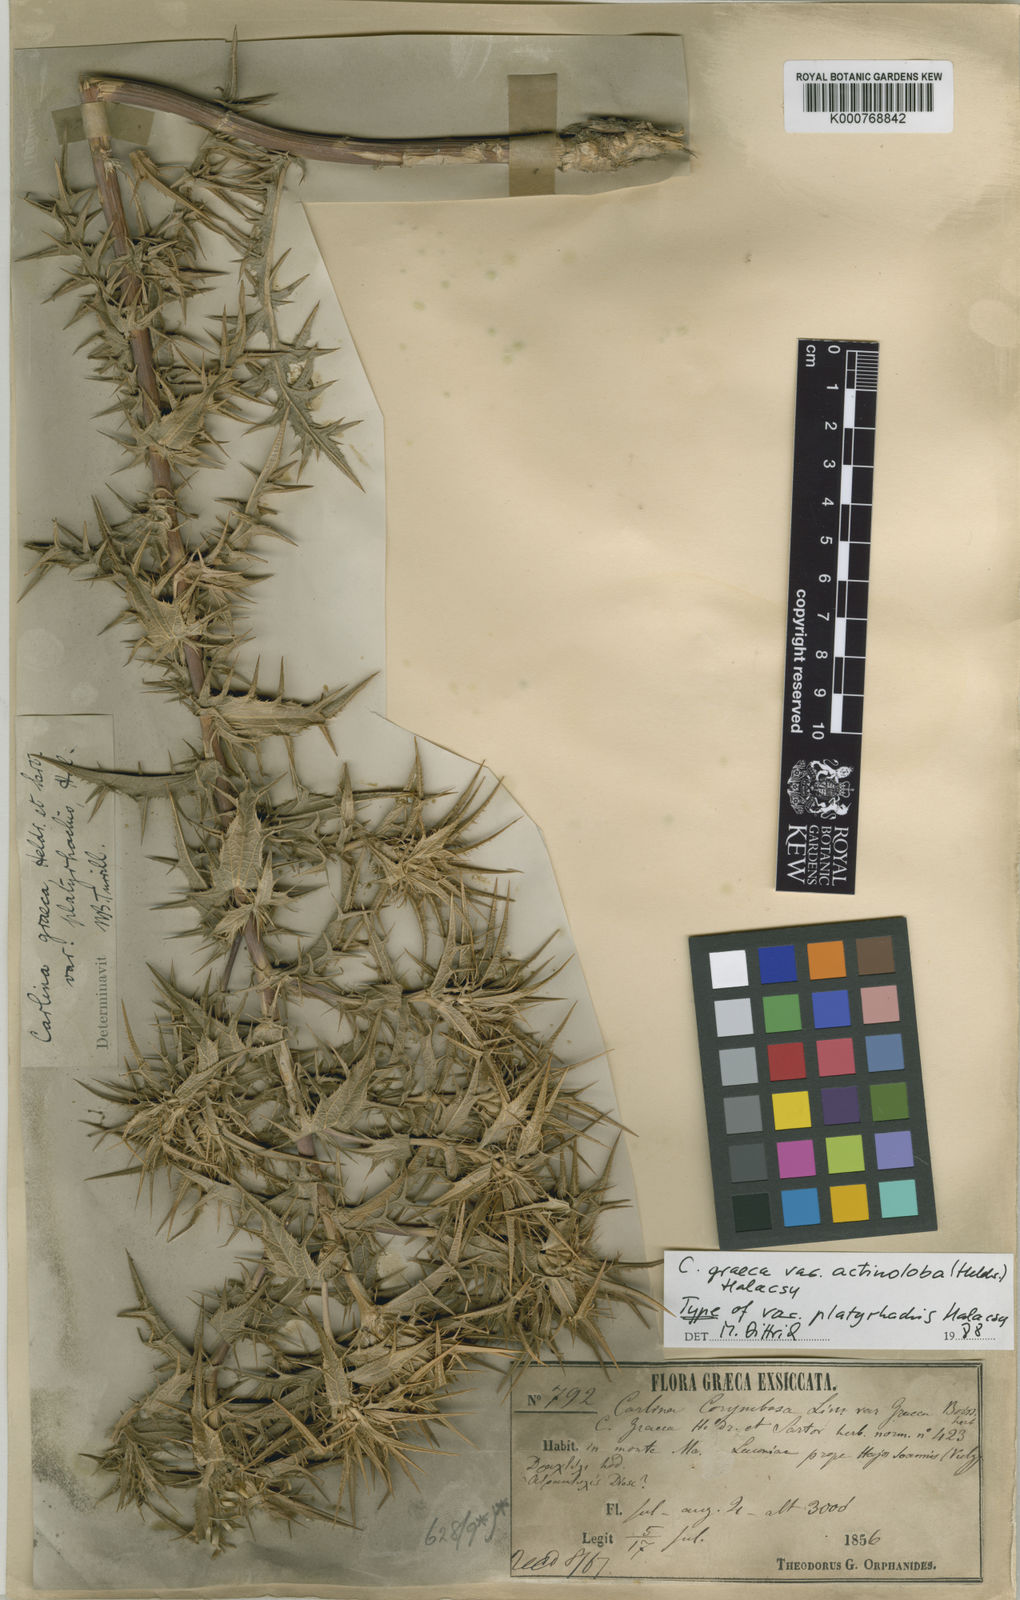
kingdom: Plantae
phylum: Tracheophyta
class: Magnoliopsida
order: Asterales
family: Asteraceae
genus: Carlina
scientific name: Carlina graeca
